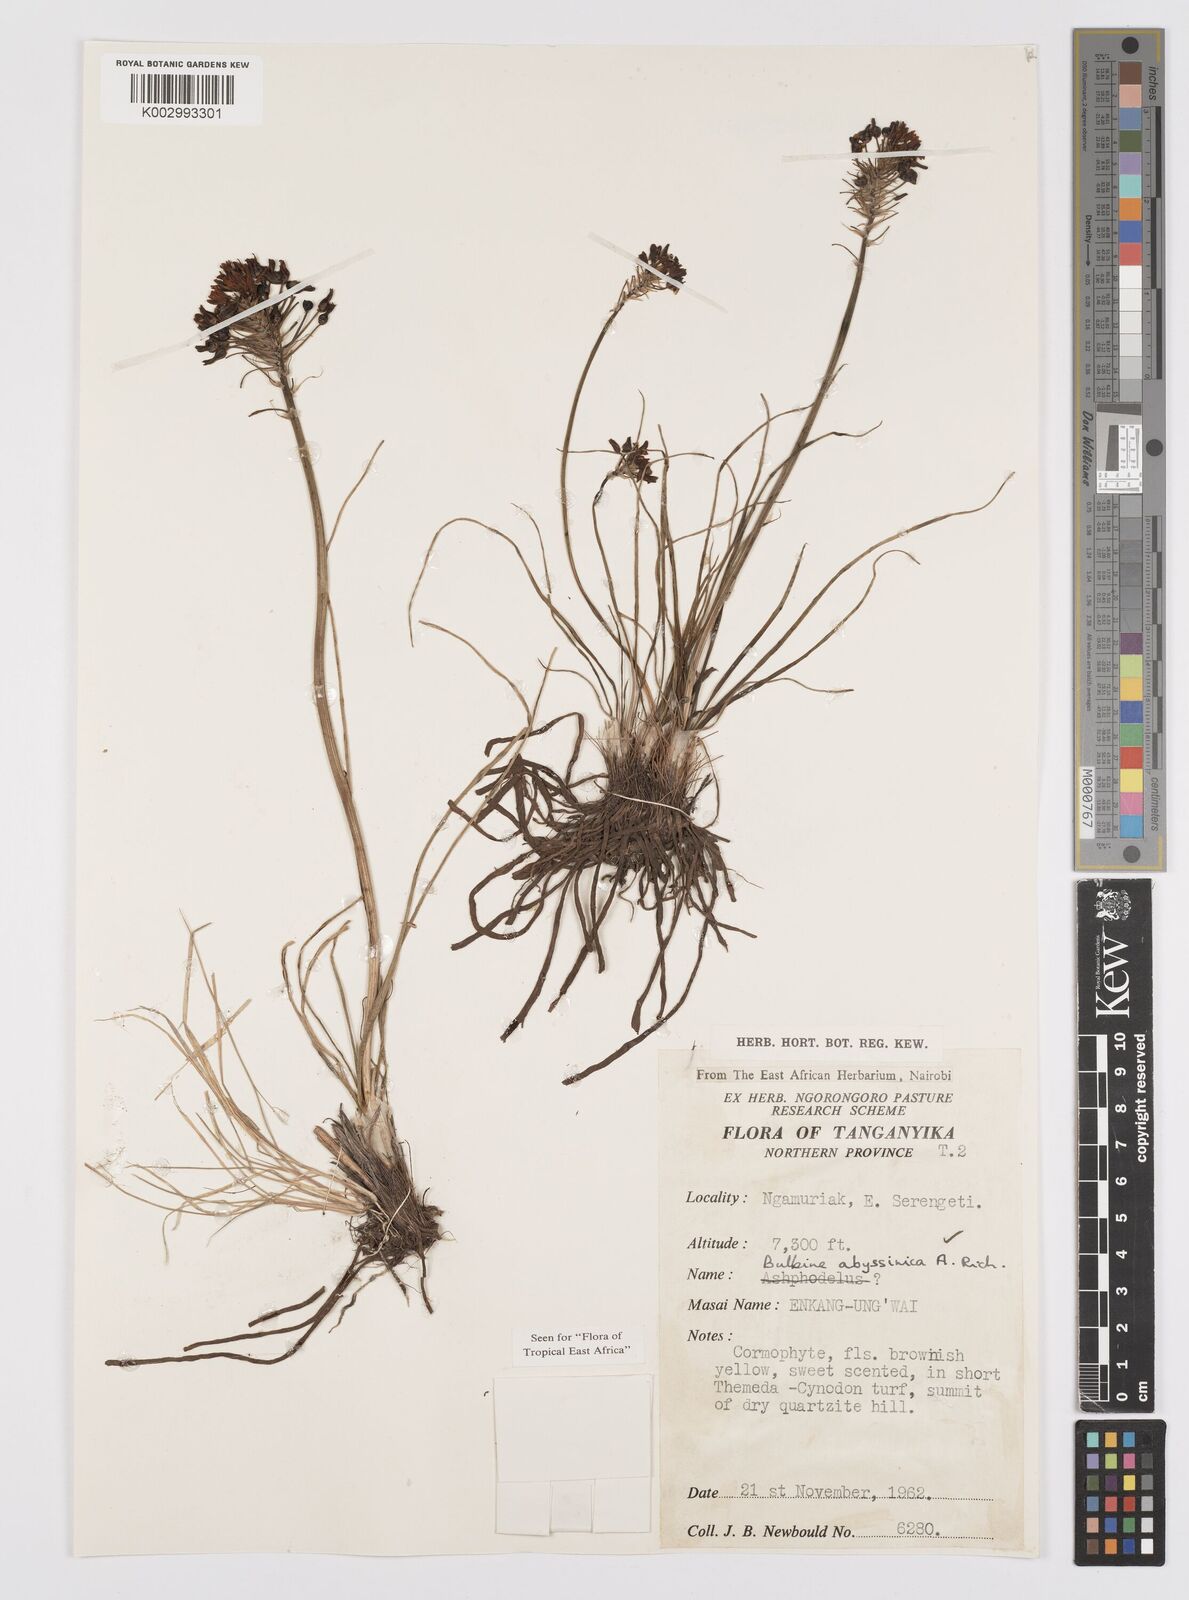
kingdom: Plantae
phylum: Tracheophyta
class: Liliopsida
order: Asparagales
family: Asphodelaceae
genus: Bulbine
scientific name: Bulbine abyssinica
